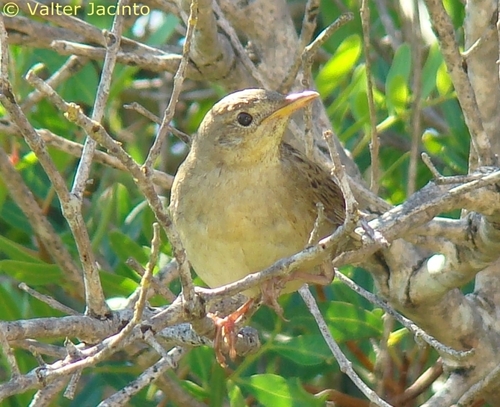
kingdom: Animalia
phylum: Chordata
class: Aves
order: Passeriformes
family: Locustellidae
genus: Locustella
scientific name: Locustella naevia
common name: Common grasshopper warbler
